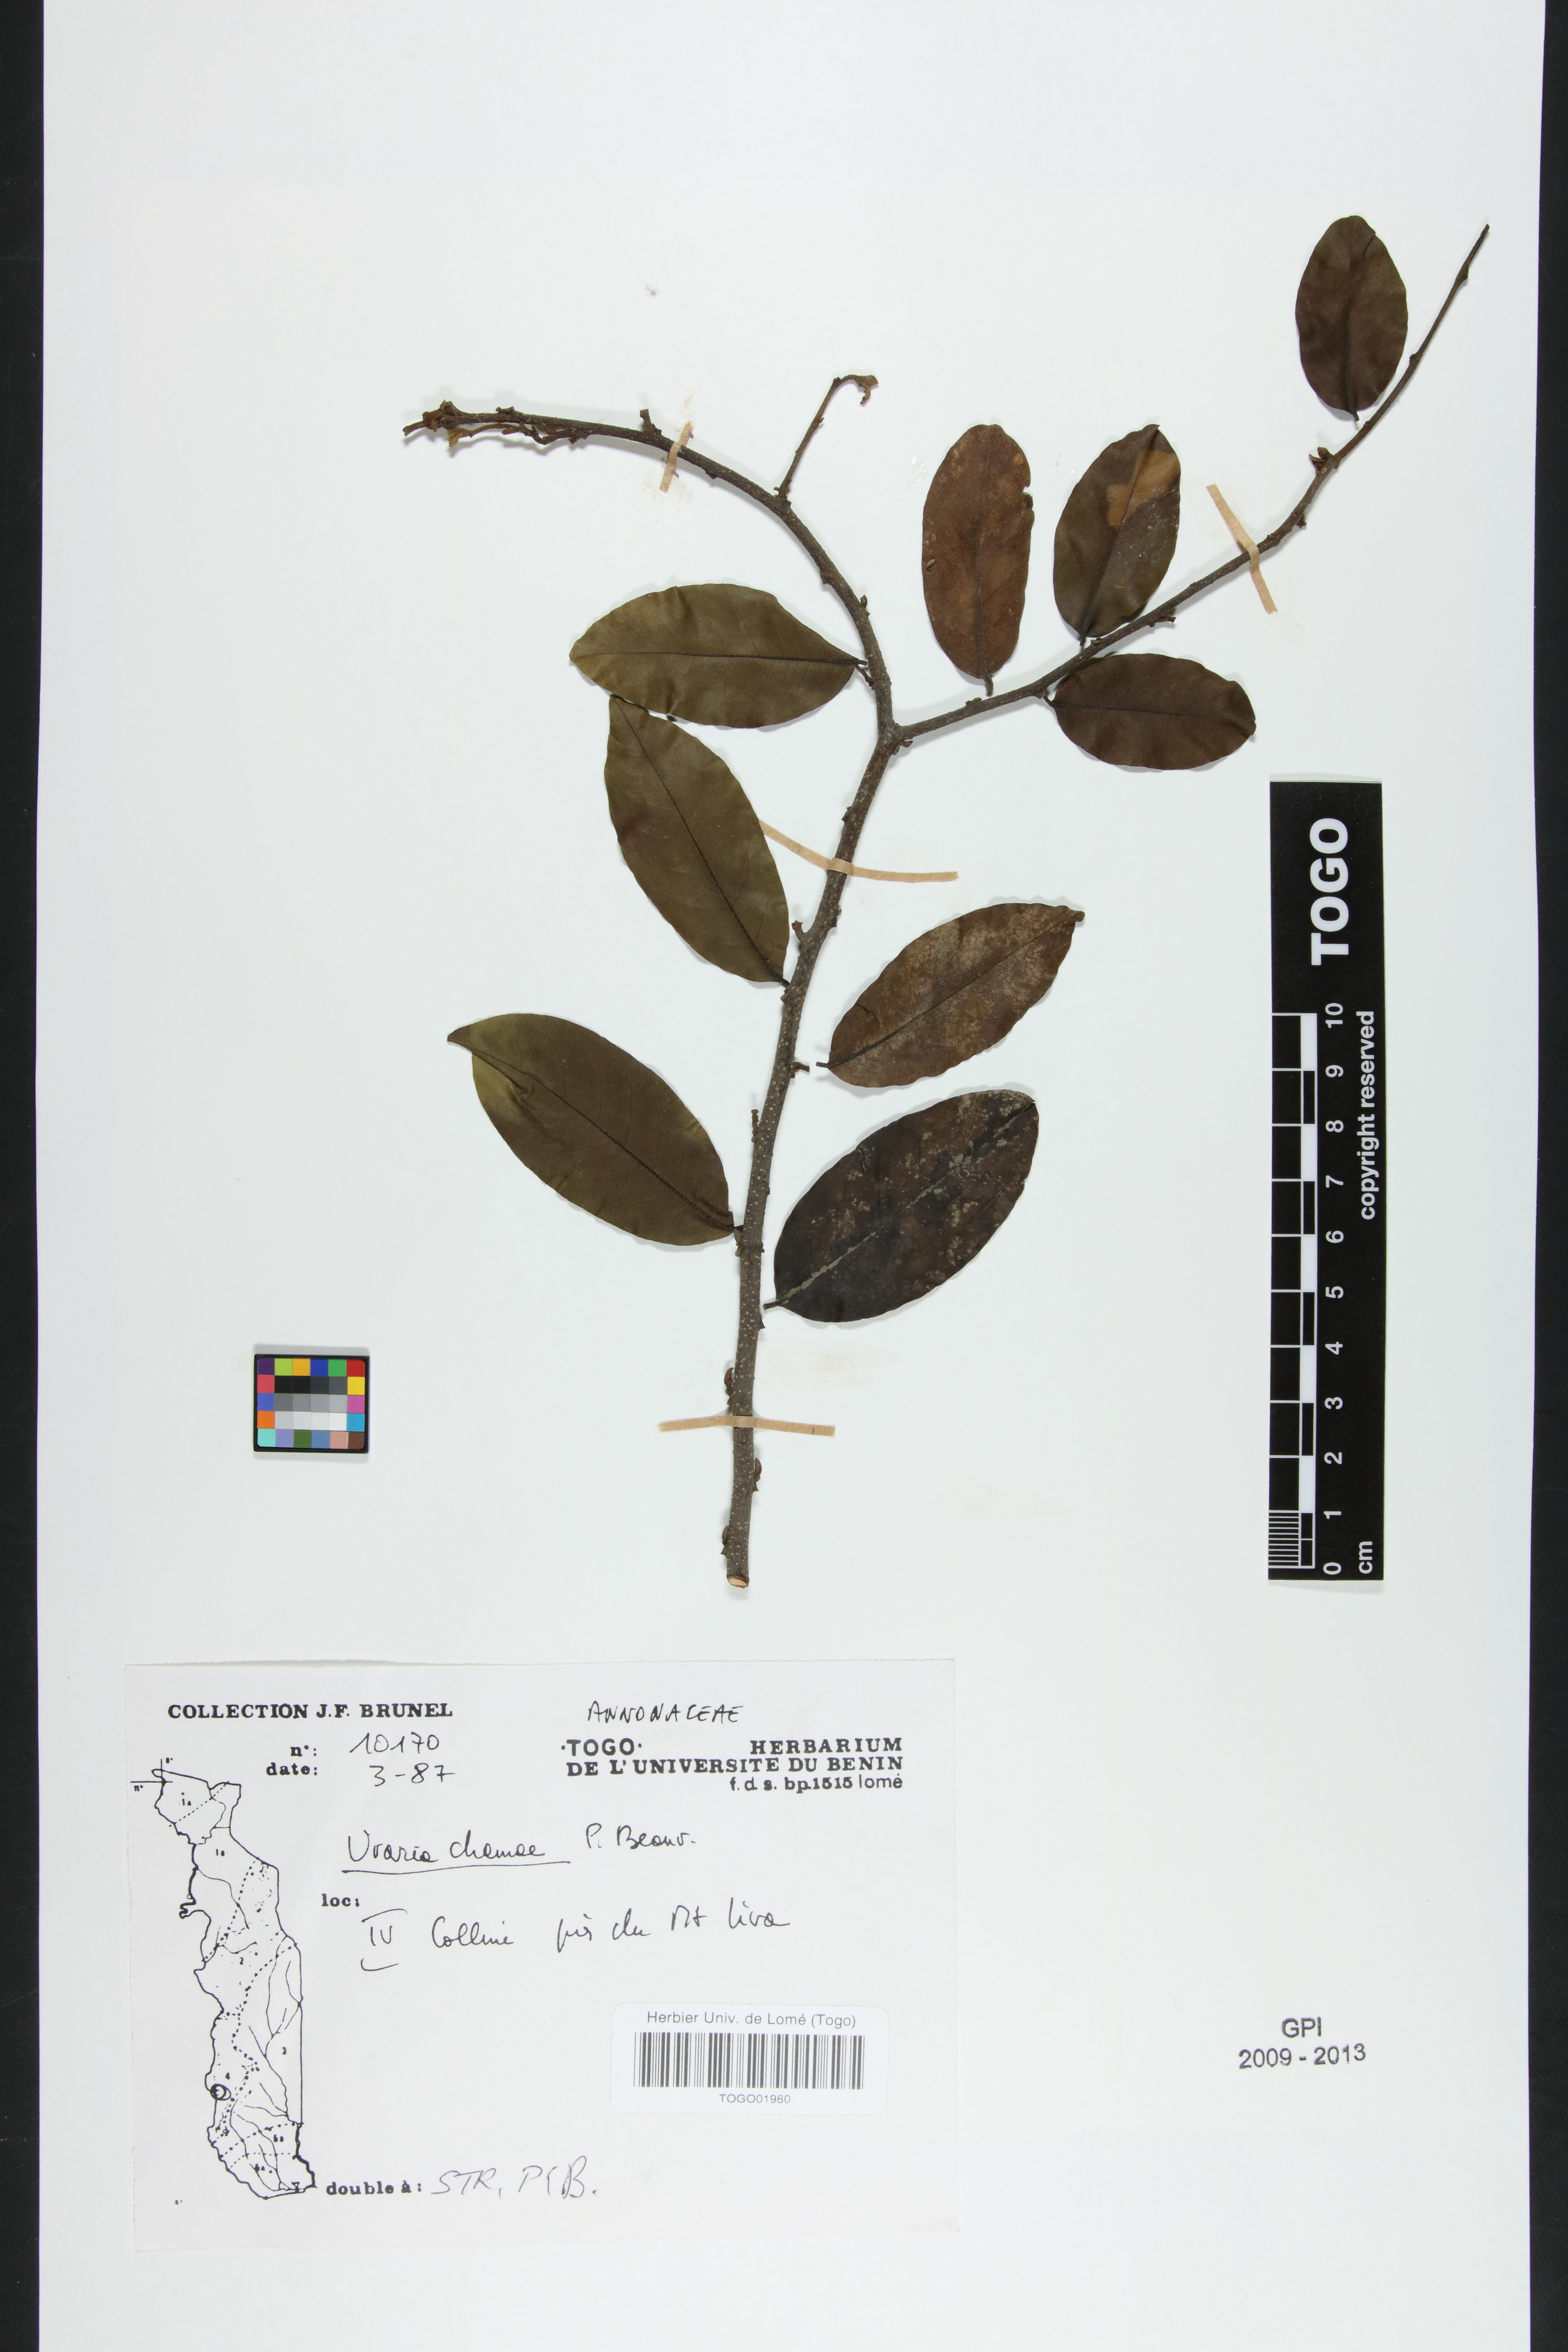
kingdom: Plantae
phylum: Tracheophyta
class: Magnoliopsida
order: Magnoliales
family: Annonaceae
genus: Uvaria
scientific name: Uvaria chamae
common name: Finger-root
